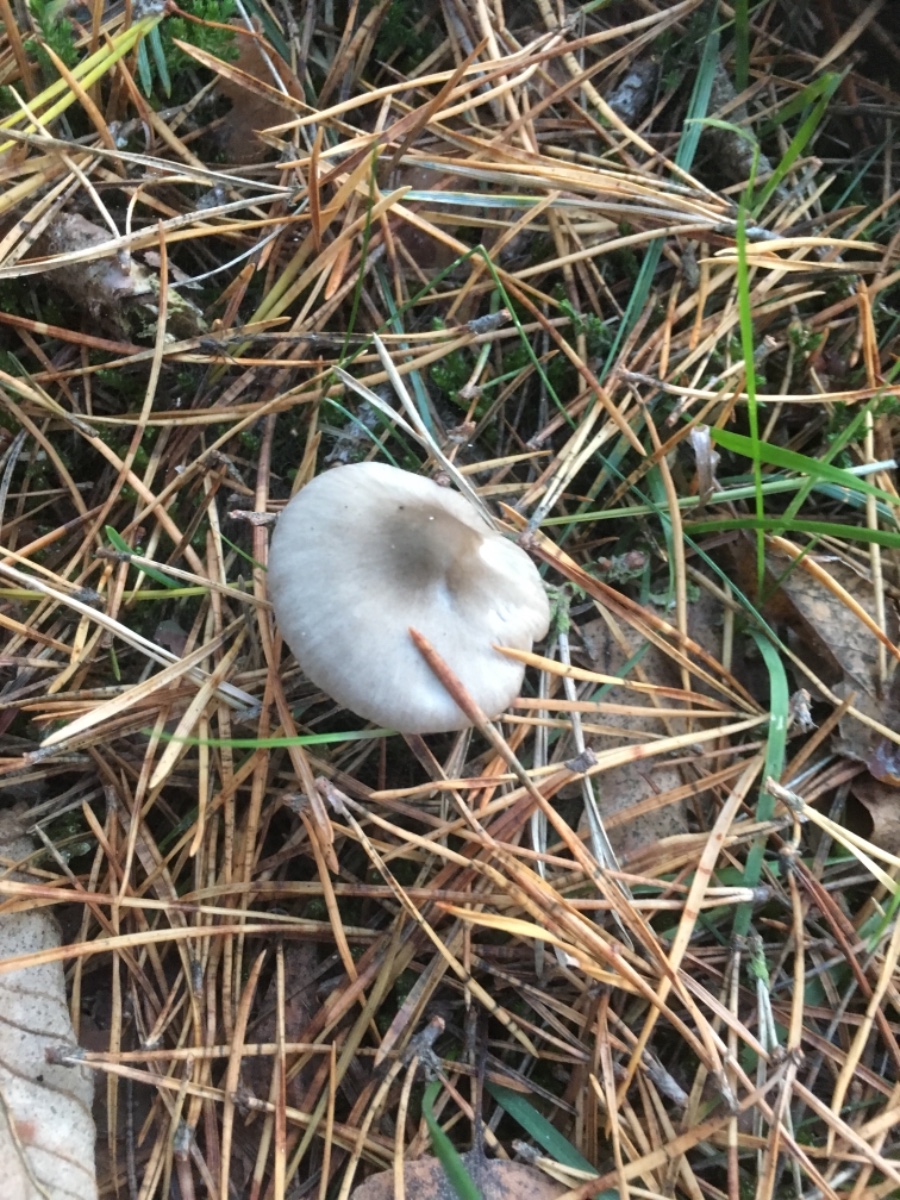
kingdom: Fungi
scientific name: Fungi
